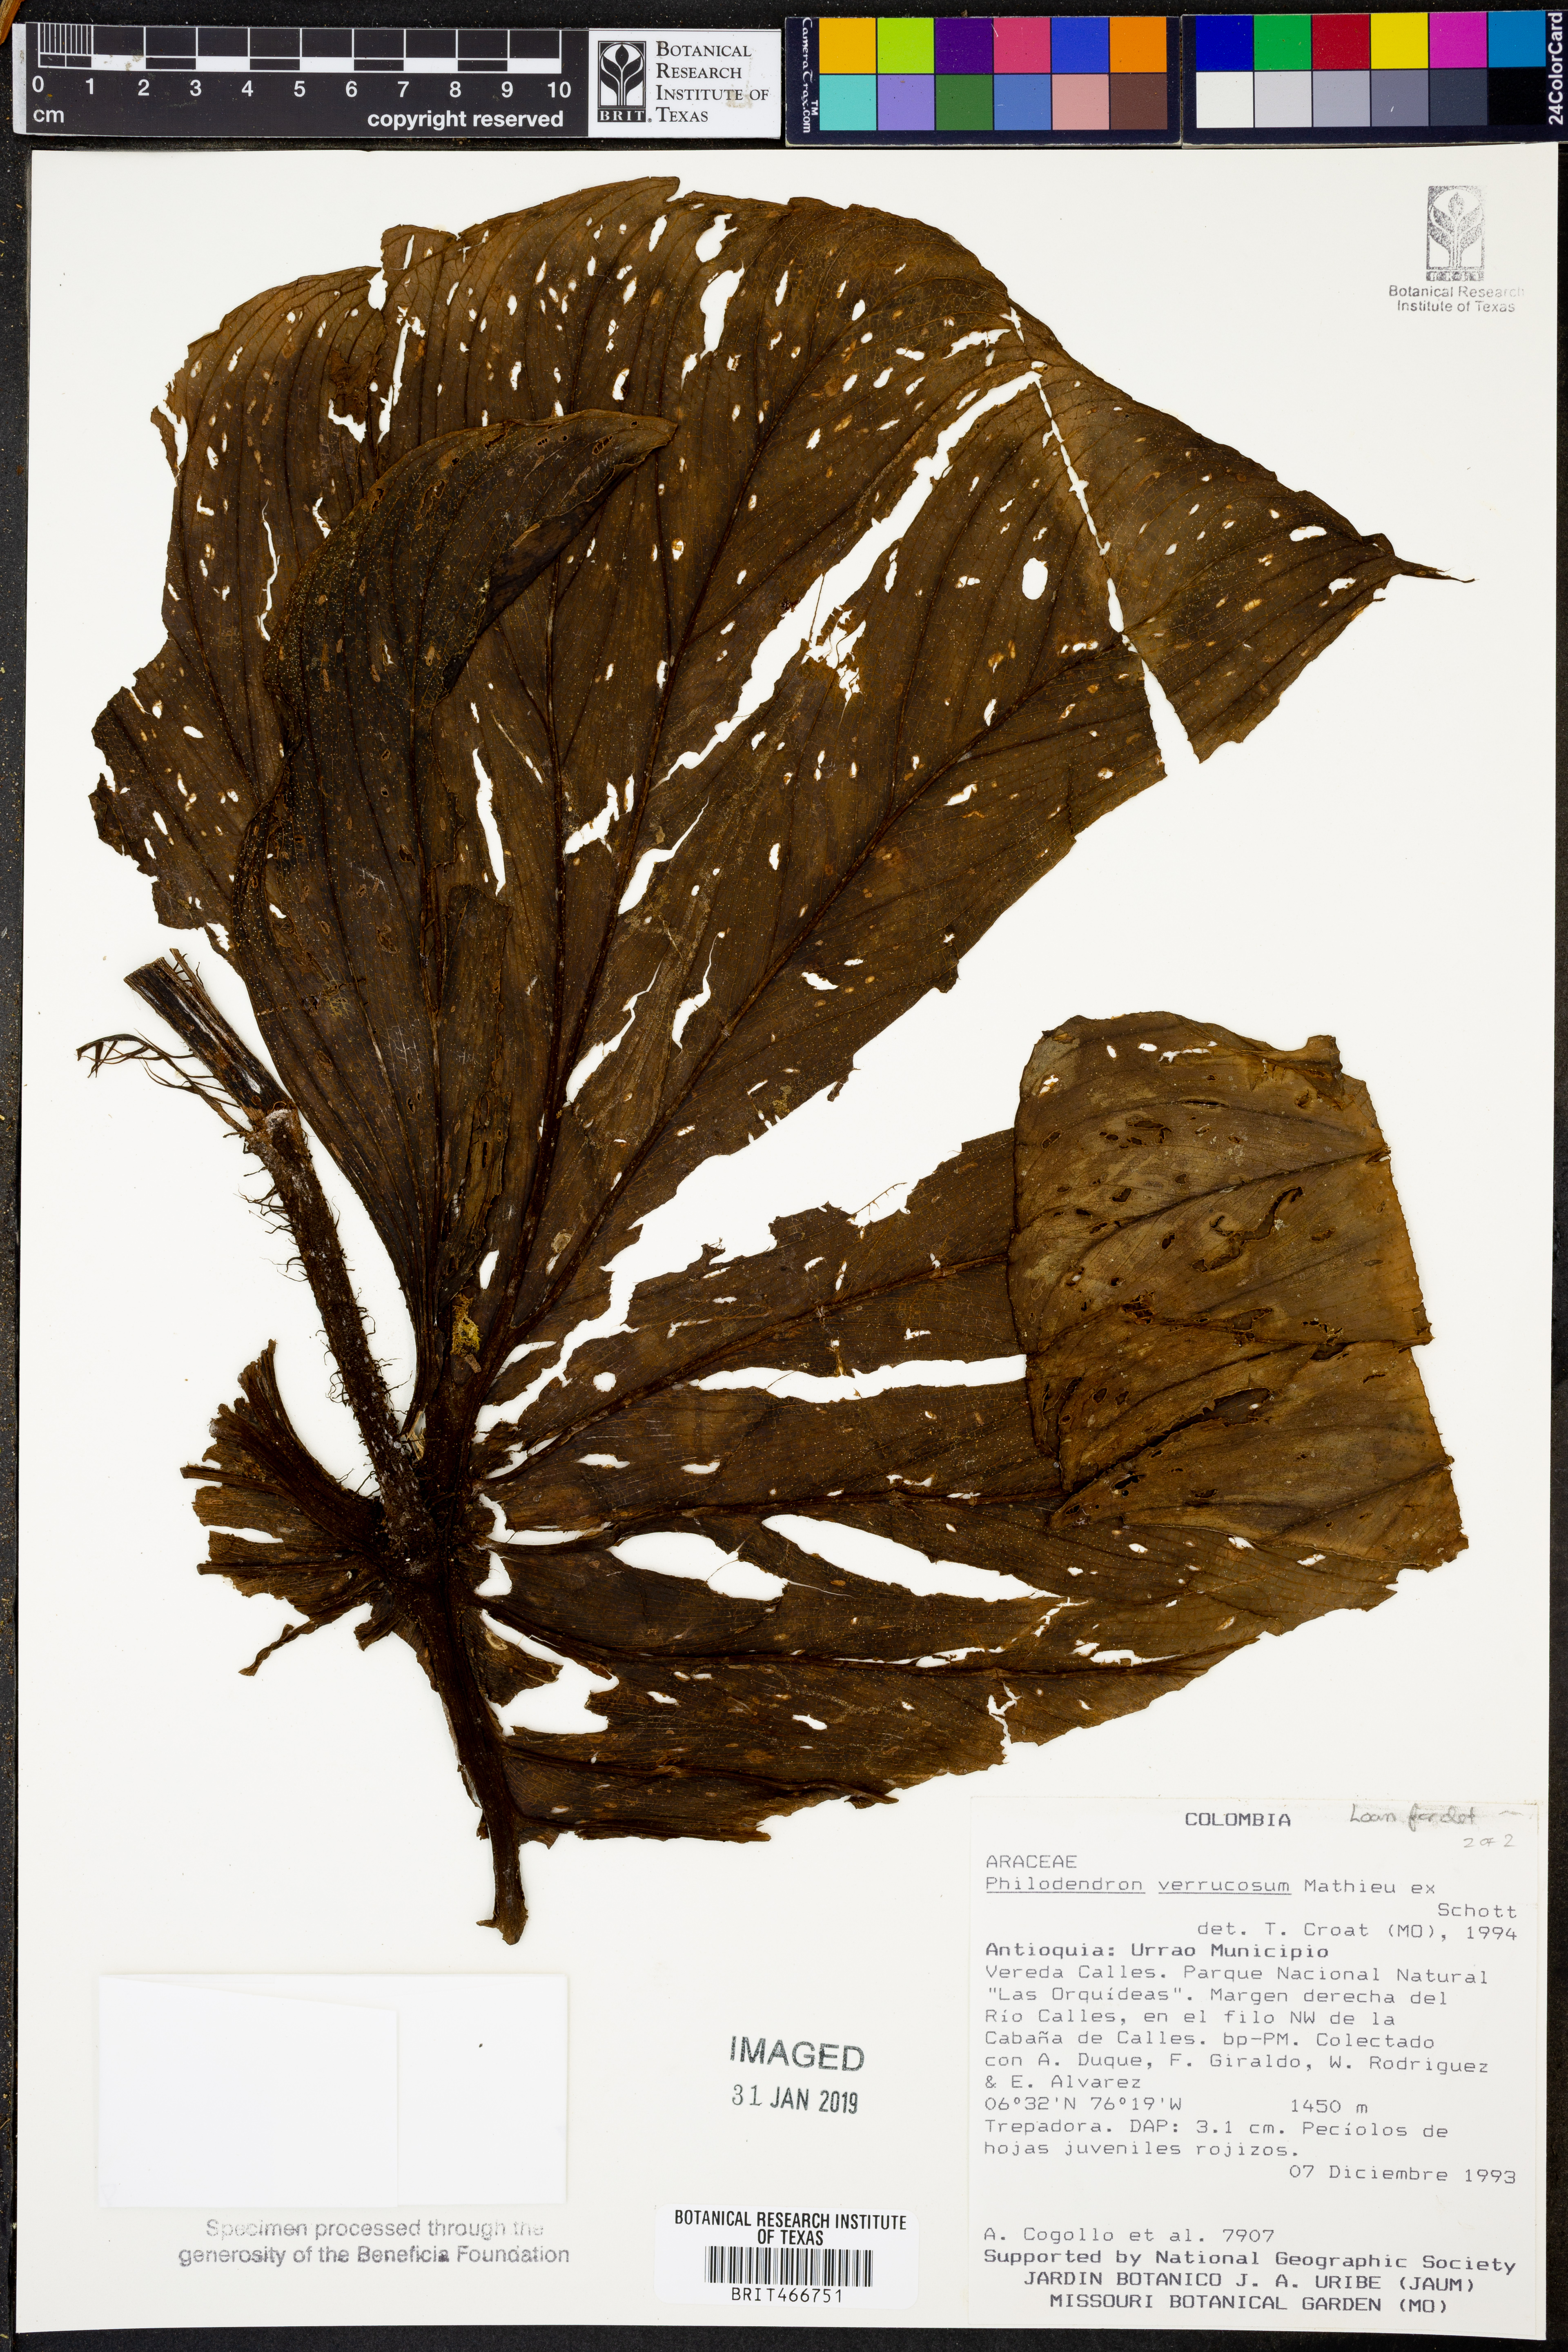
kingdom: Plantae
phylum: Tracheophyta
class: Liliopsida
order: Alismatales
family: Araceae
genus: Philodendron
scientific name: Philodendron verrucosum
